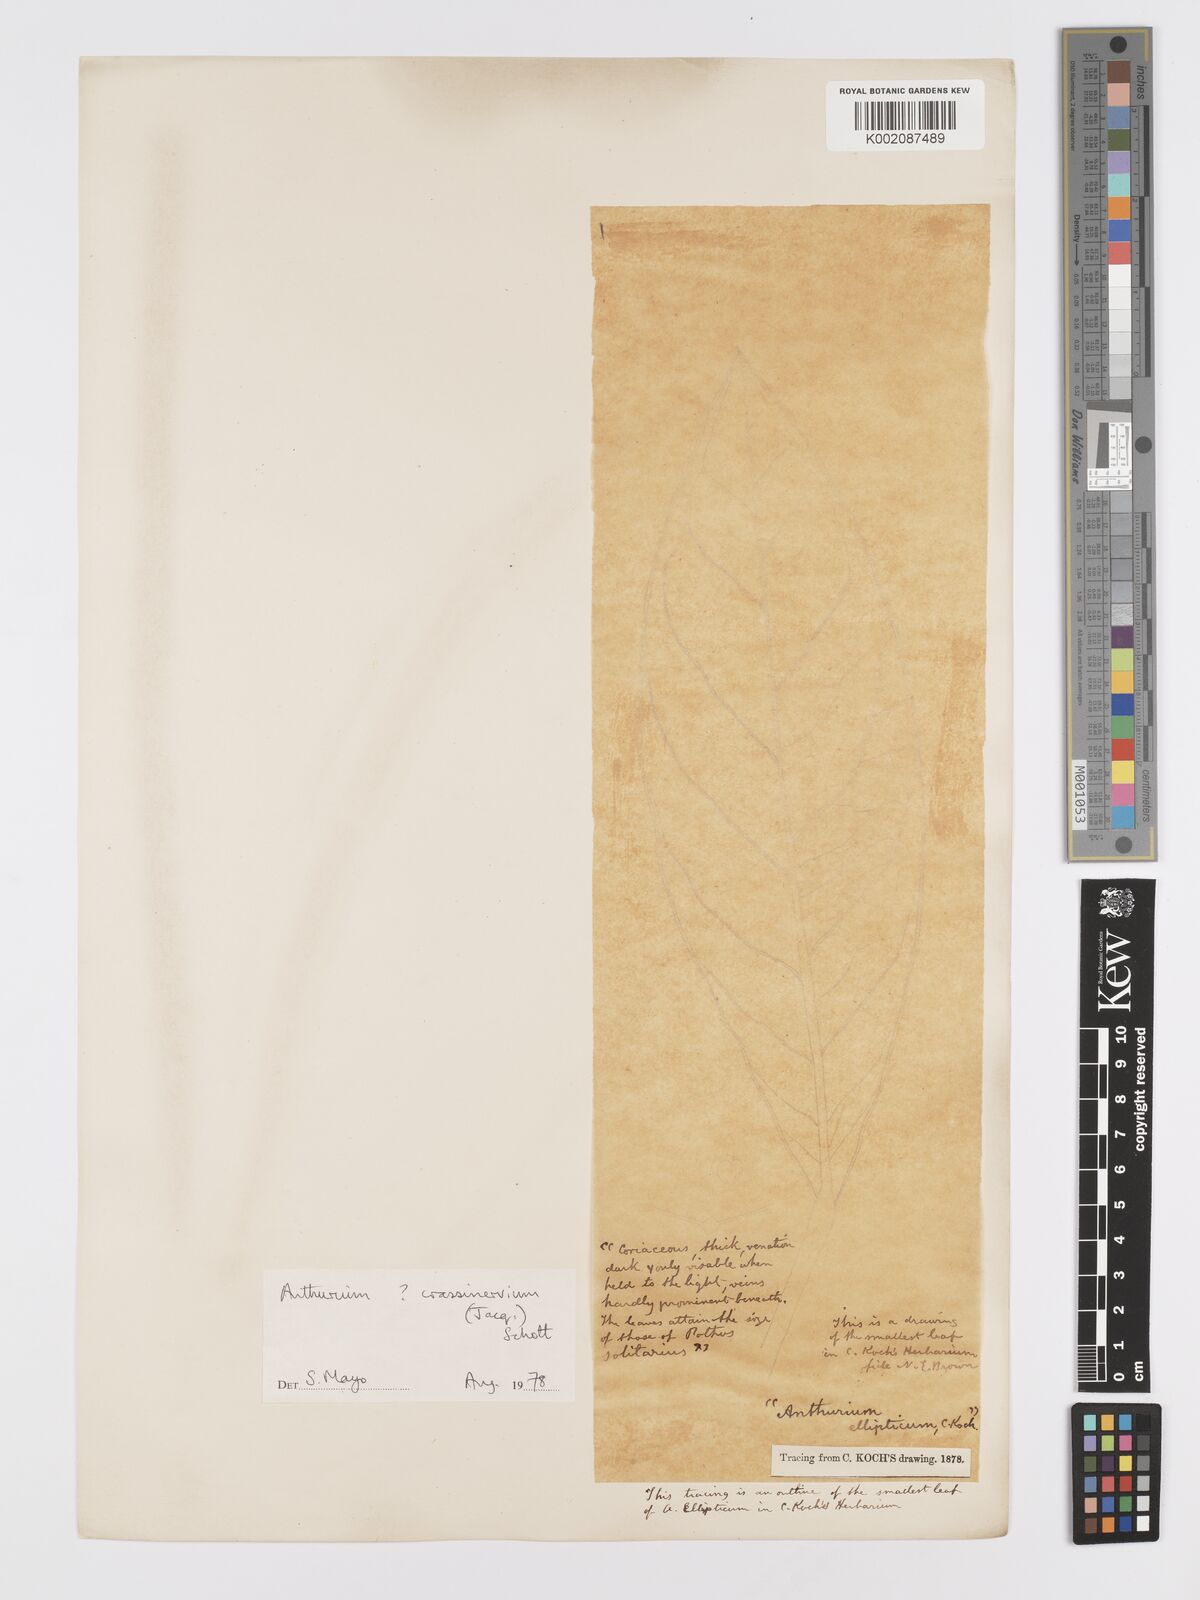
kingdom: Plantae
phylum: Tracheophyta
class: Liliopsida
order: Alismatales
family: Araceae
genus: Anthurium
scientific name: Anthurium crassinervium
